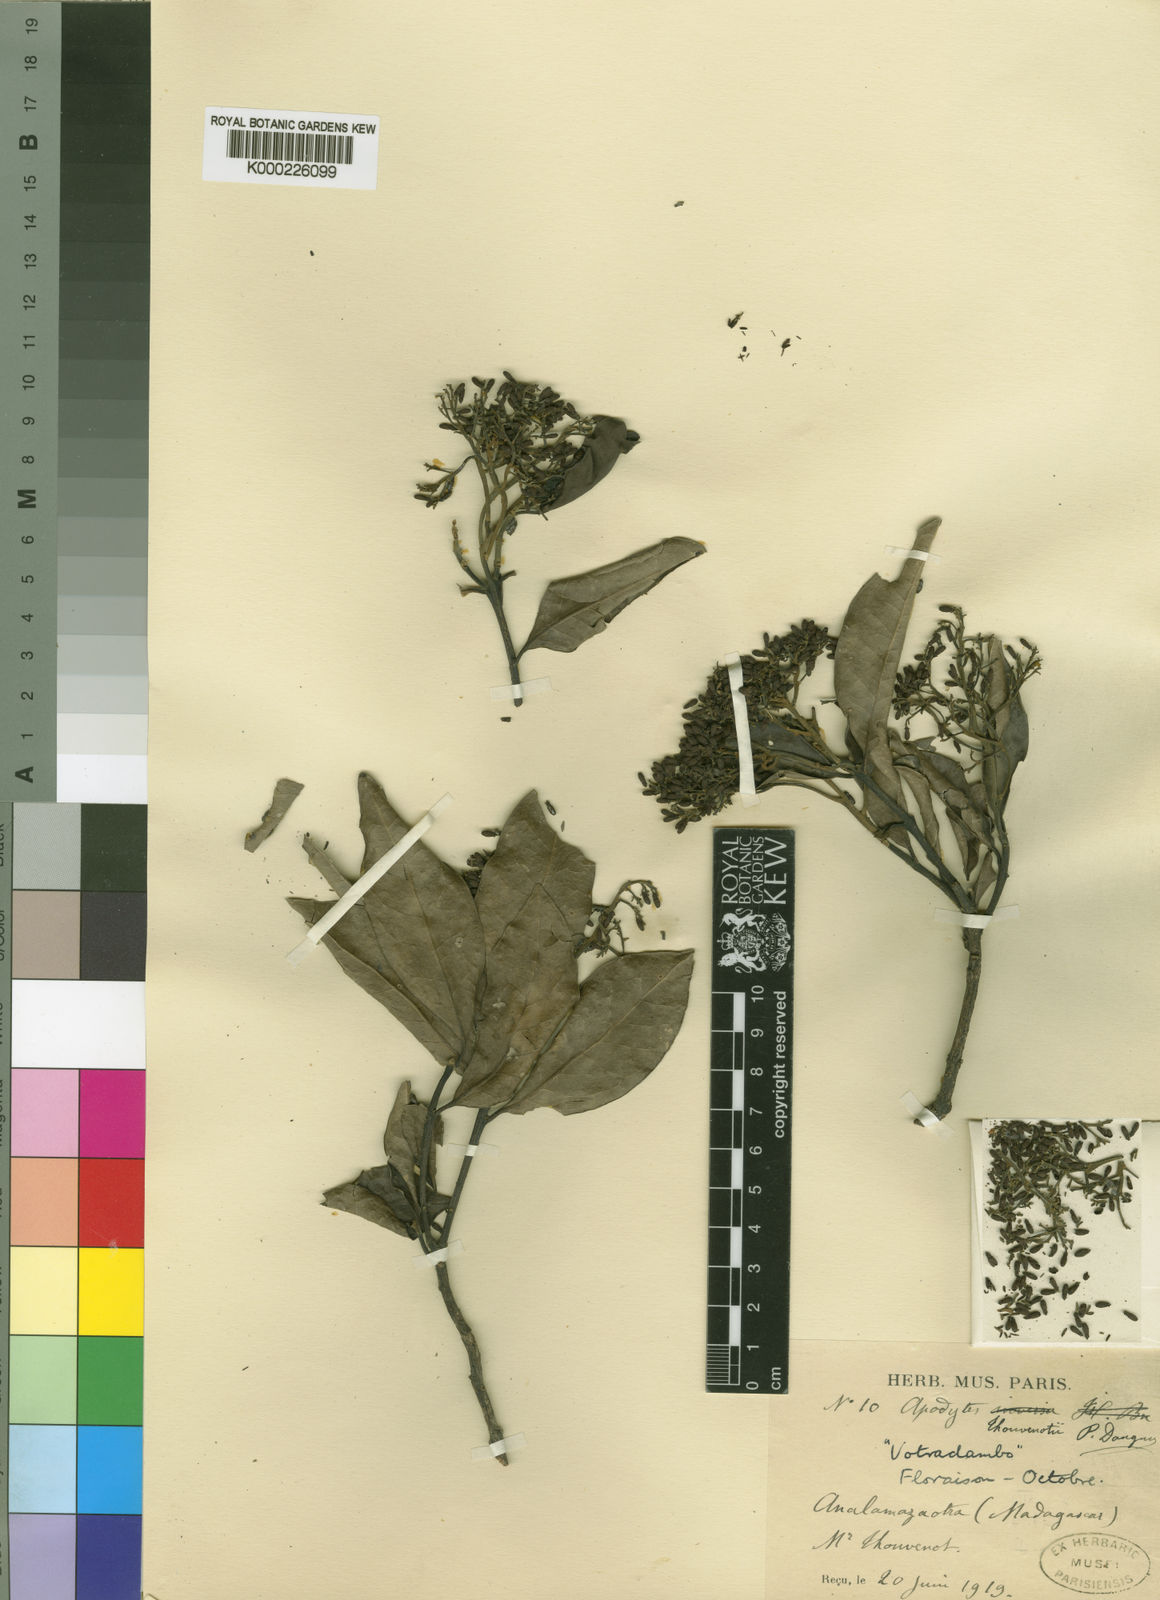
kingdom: Plantae
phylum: Tracheophyta
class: Magnoliopsida
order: Metteniusales
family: Metteniusaceae
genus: Apodytes
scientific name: Apodytes dimidiata
